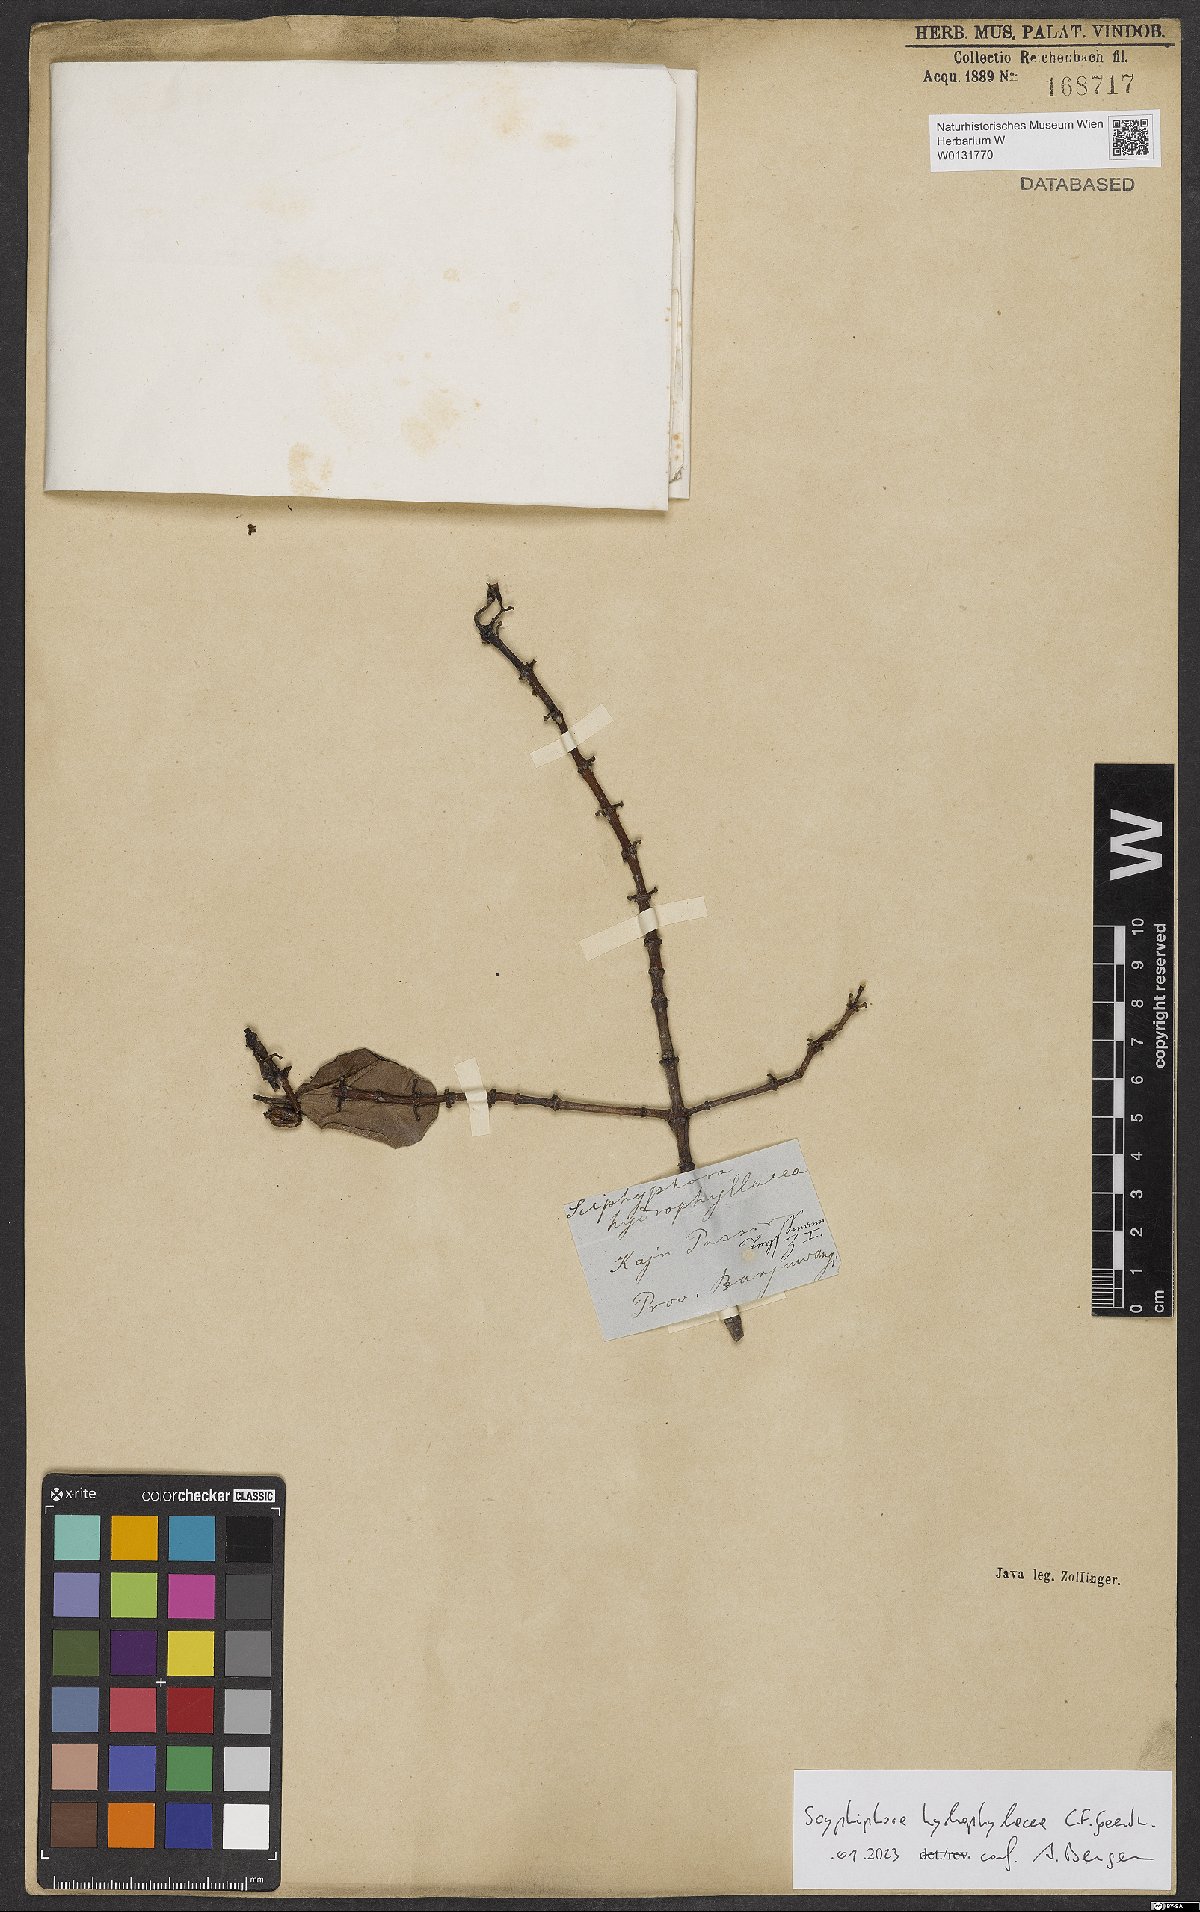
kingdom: Plantae
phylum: Tracheophyta
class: Magnoliopsida
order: Gentianales
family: Rubiaceae
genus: Scyphiphora
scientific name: Scyphiphora hydrophylacea
